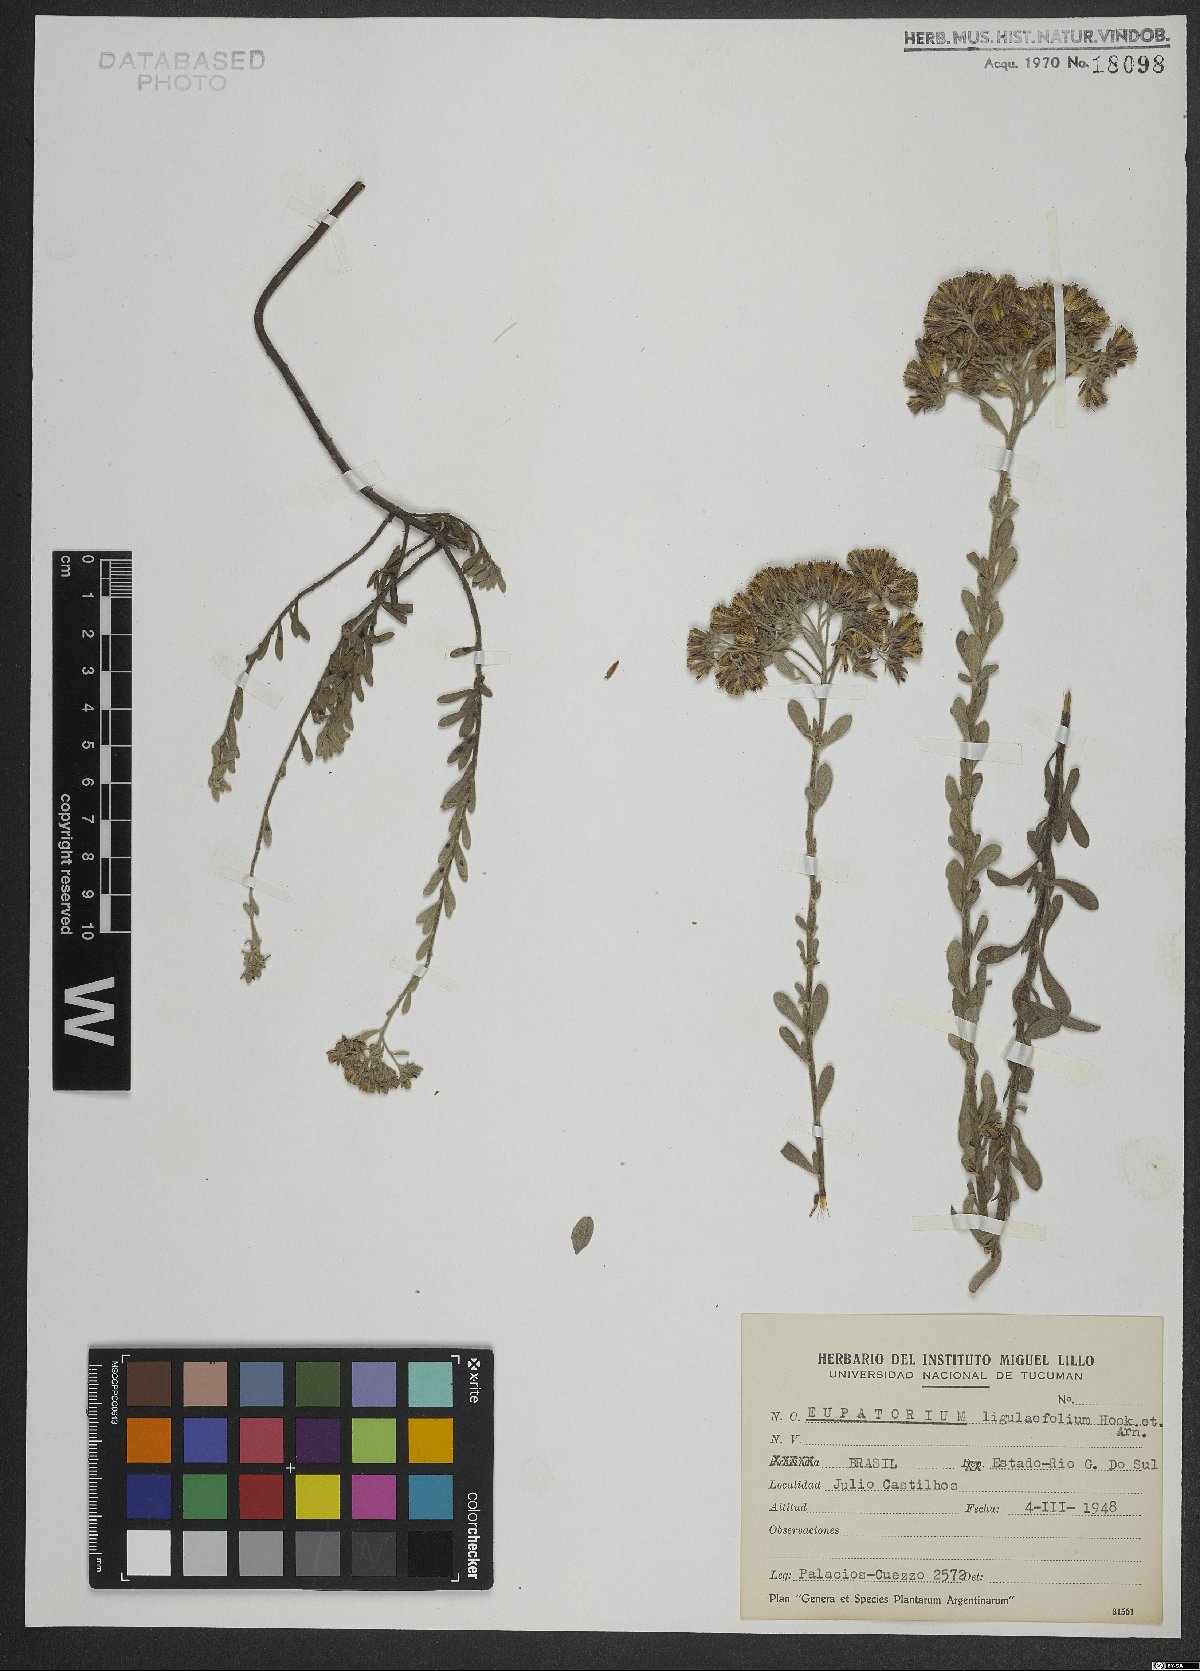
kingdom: Plantae
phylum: Tracheophyta
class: Magnoliopsida
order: Asterales
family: Asteraceae
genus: Disynaphia
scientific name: Disynaphia ligulifolia
